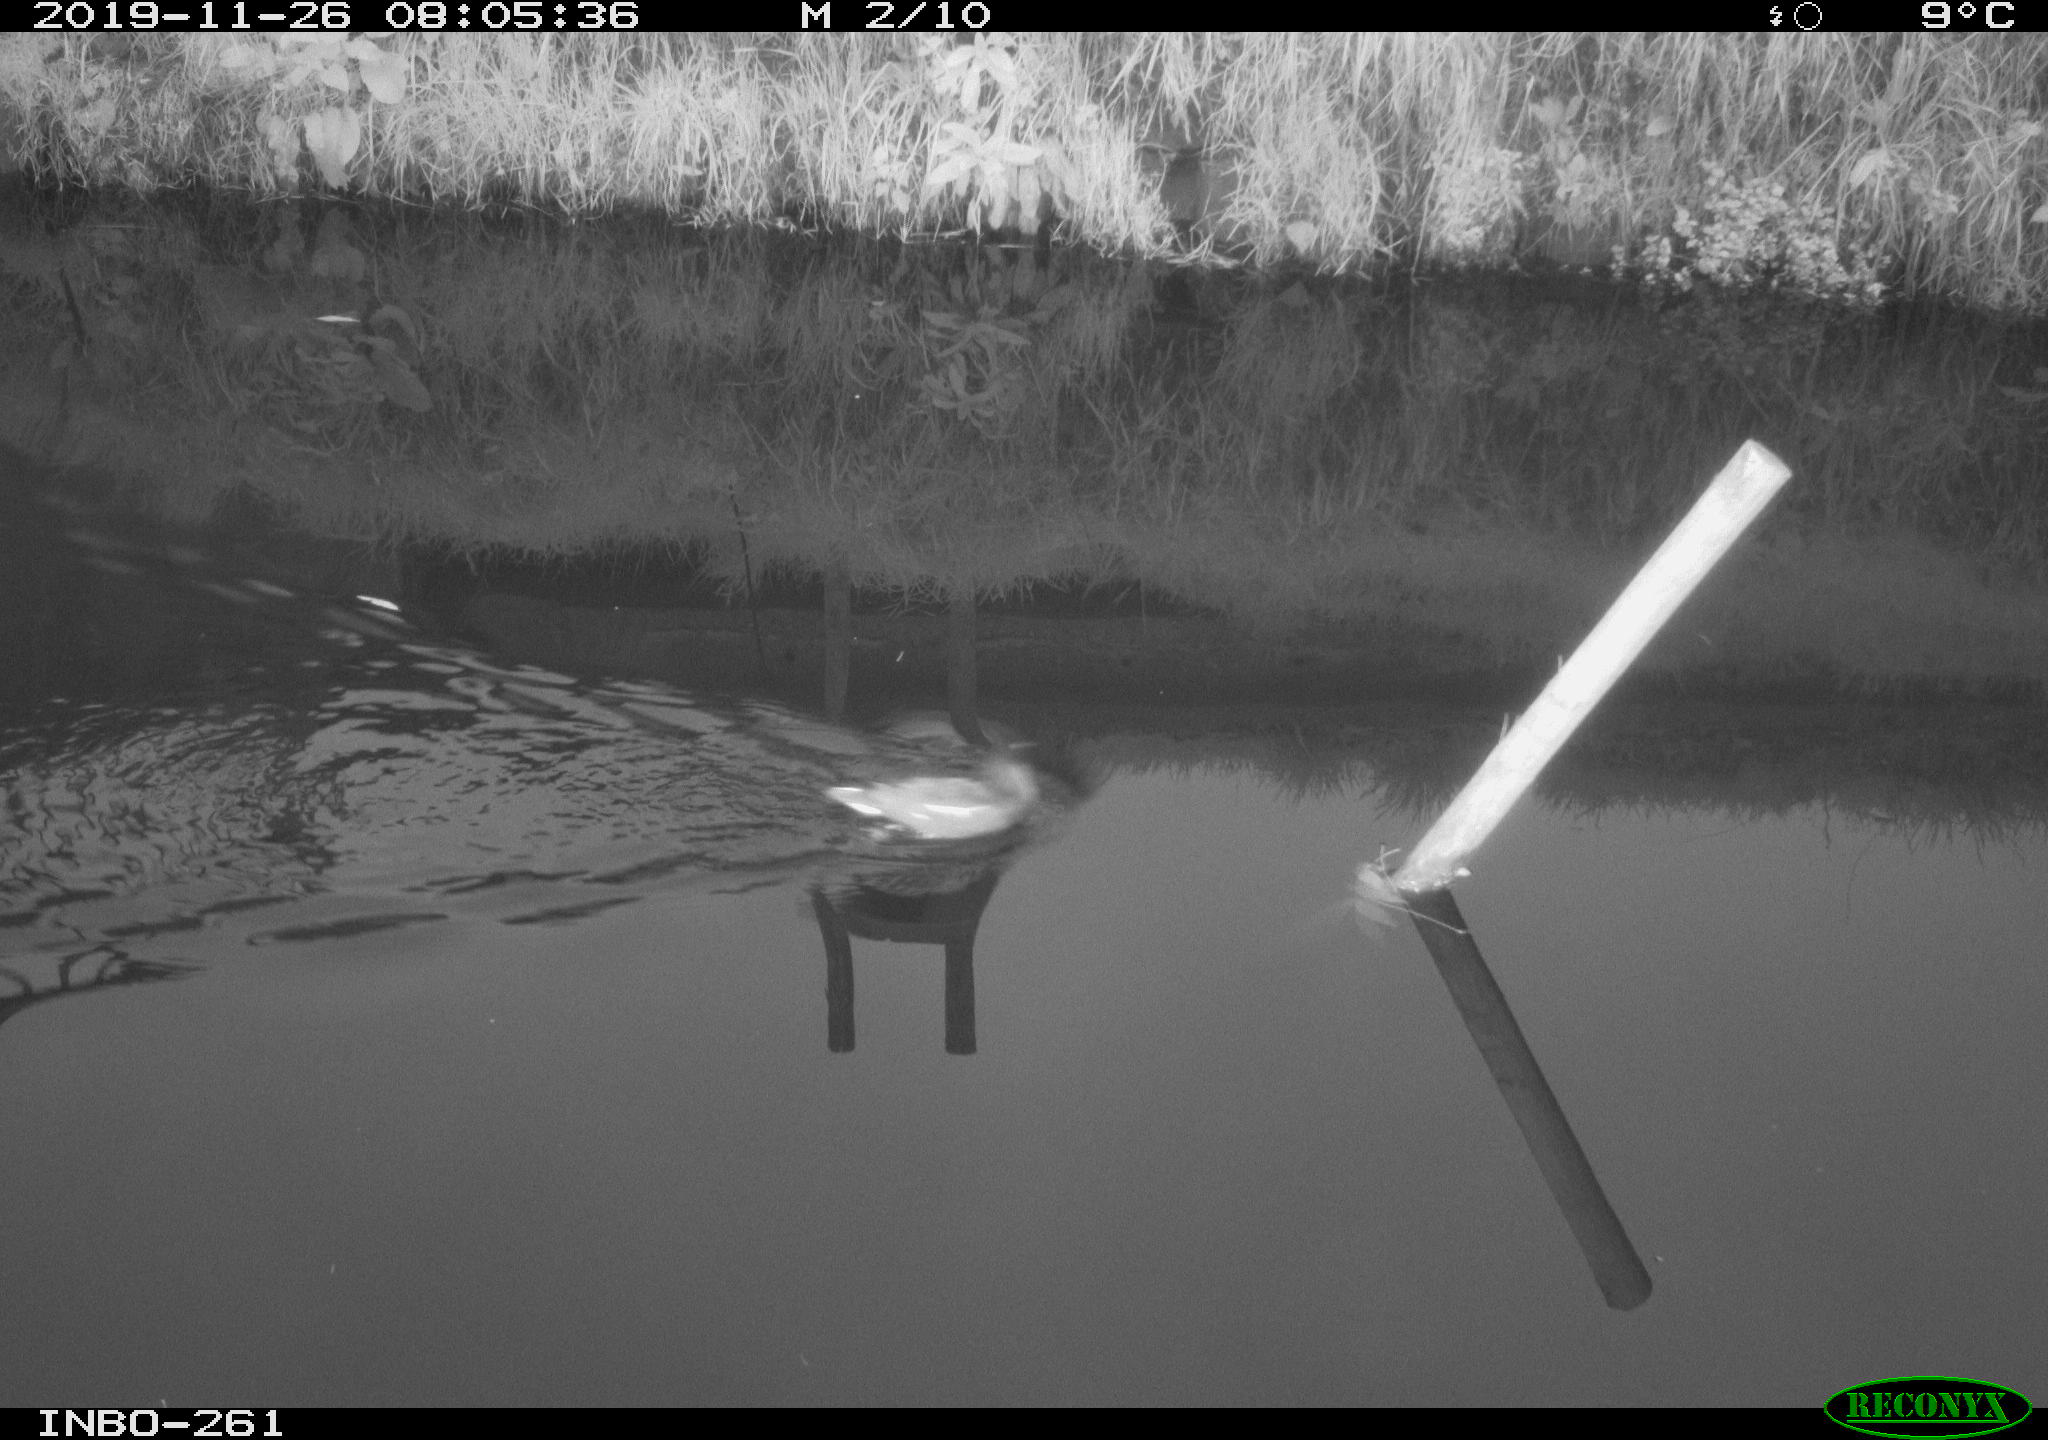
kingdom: Animalia
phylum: Chordata
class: Aves
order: Gruiformes
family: Rallidae
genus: Gallinula
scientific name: Gallinula chloropus
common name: Common moorhen
